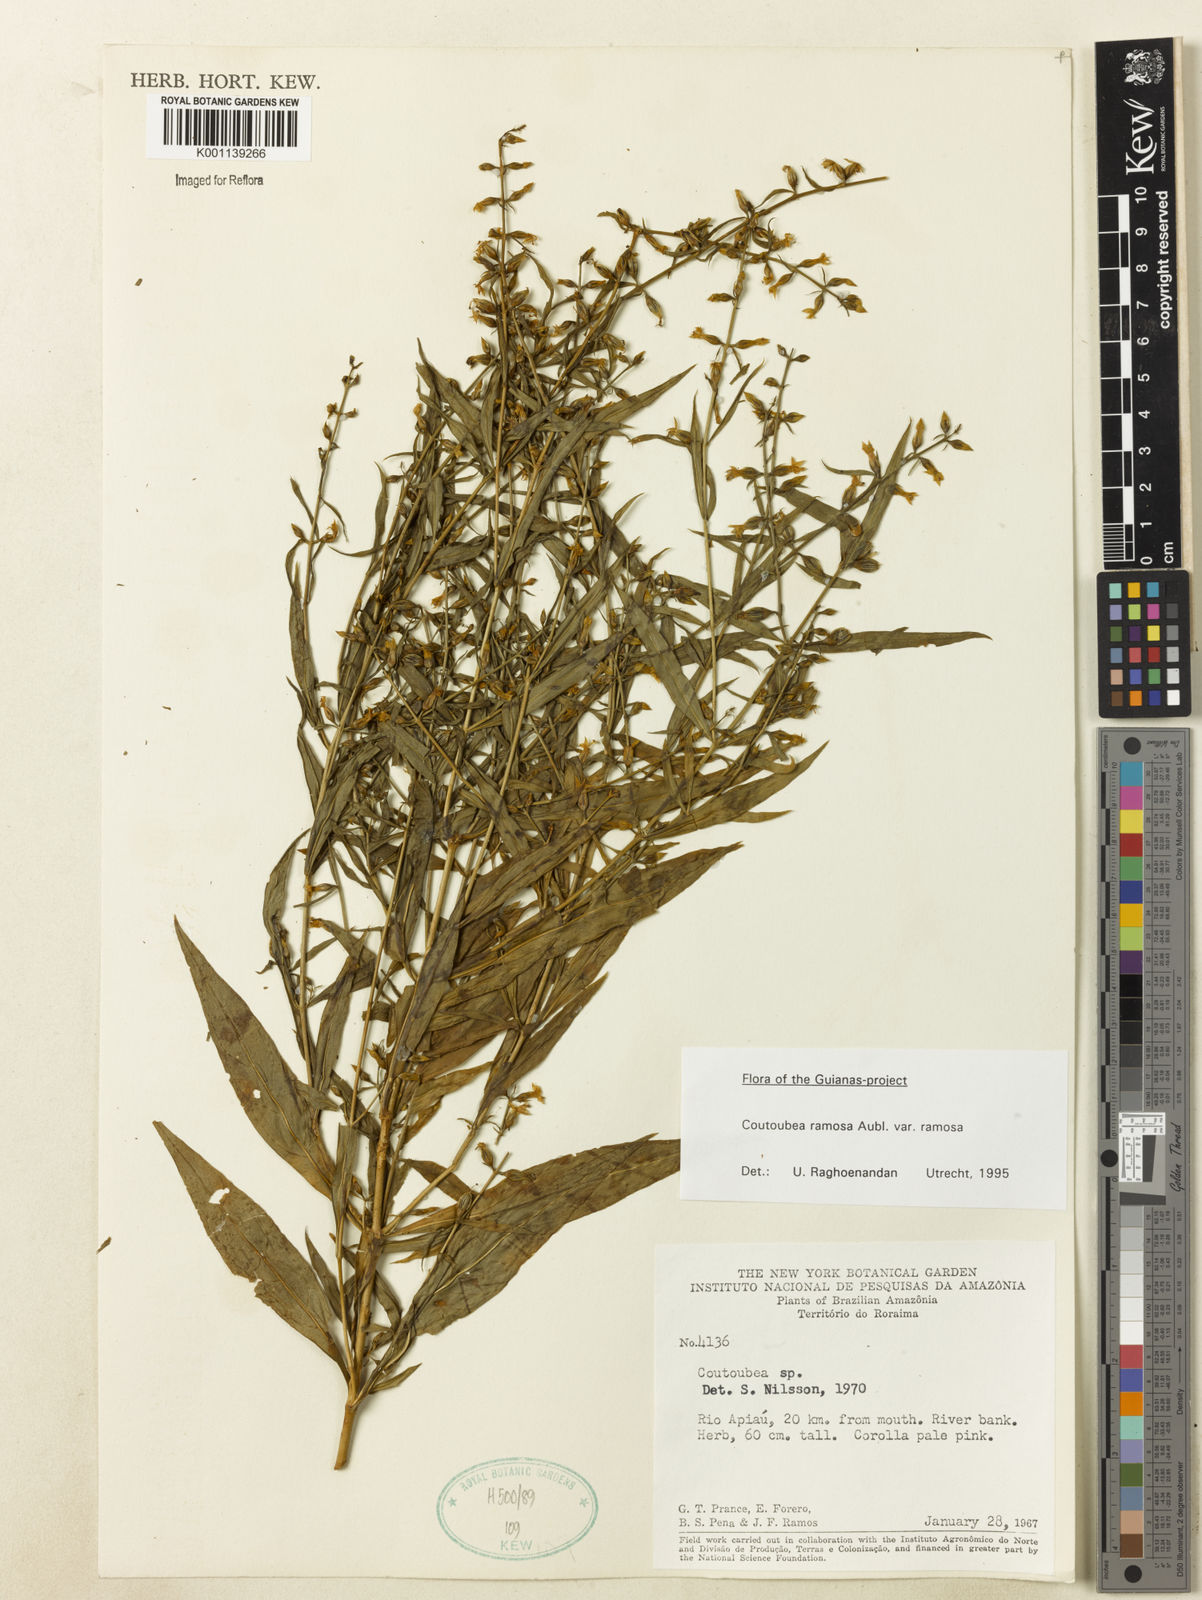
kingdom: Plantae
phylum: Tracheophyta
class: Magnoliopsida
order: Gentianales
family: Gentianaceae
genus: Coutoubea
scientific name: Coutoubea ramosa
